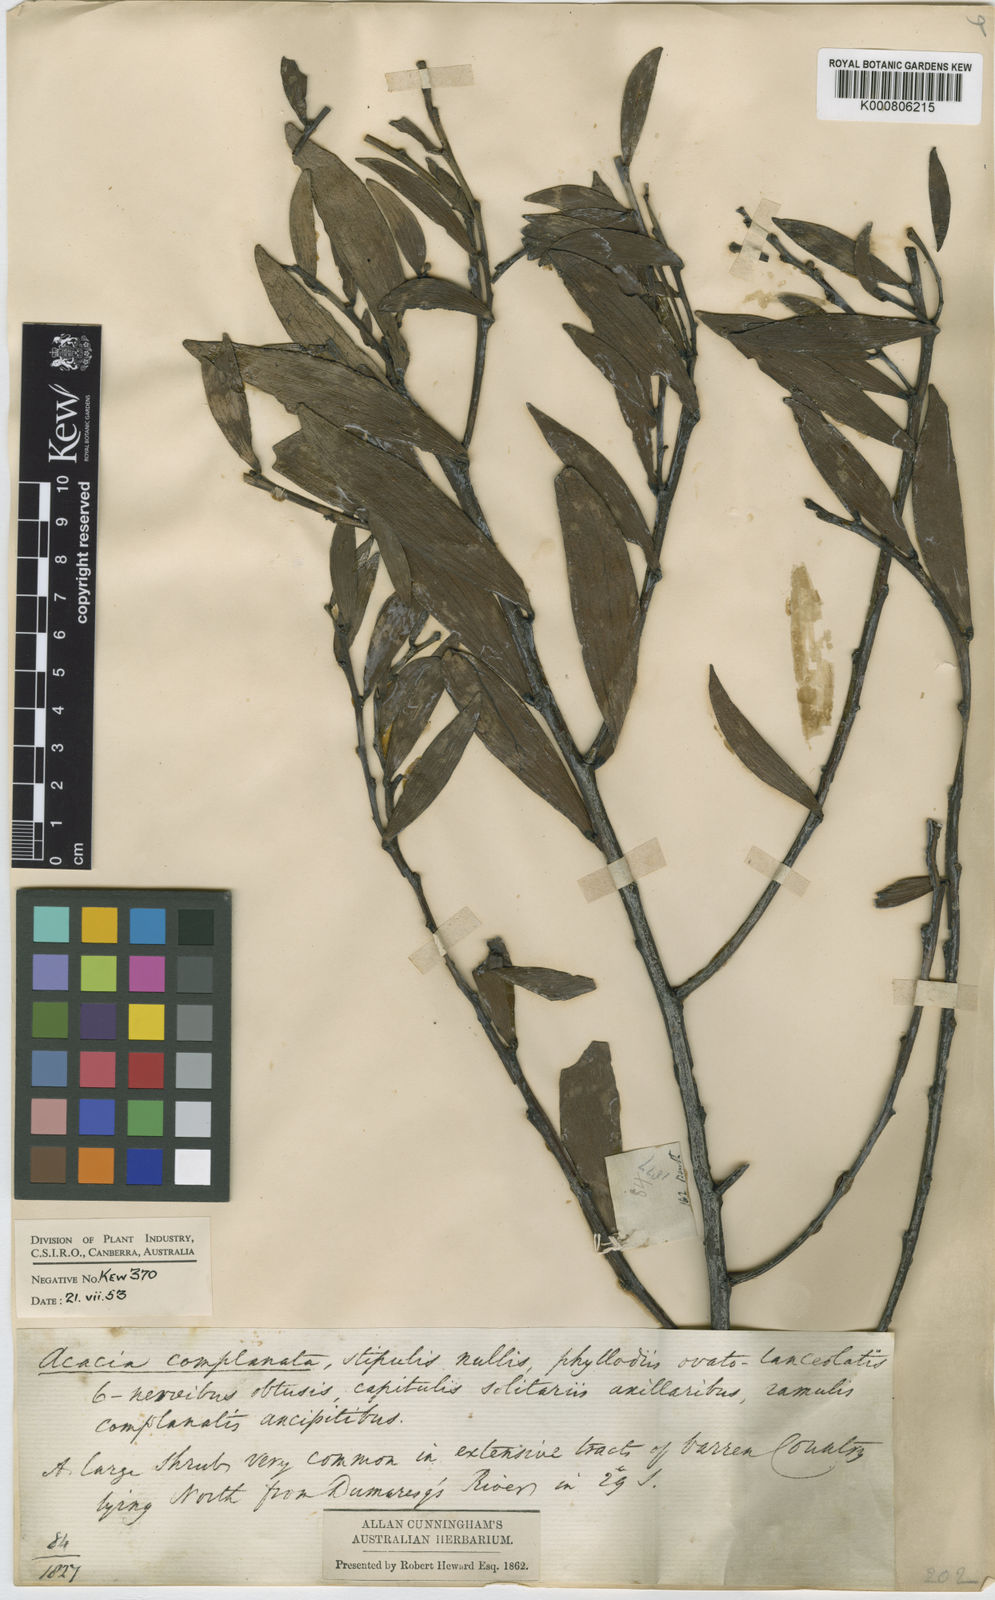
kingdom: Plantae
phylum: Tracheophyta
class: Magnoliopsida
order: Fabales
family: Fabaceae
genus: Acacia
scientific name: Acacia
